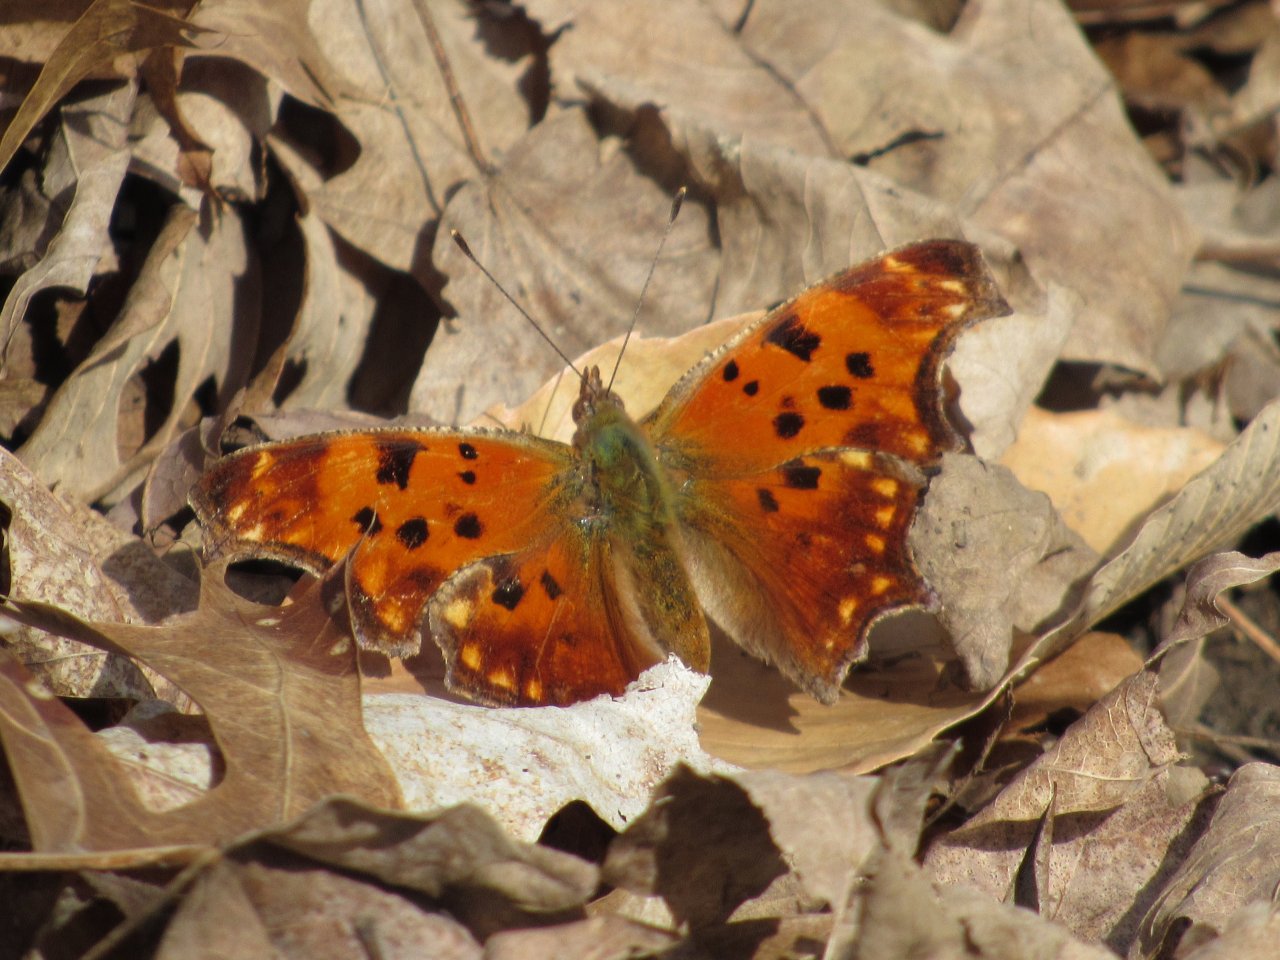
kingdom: Animalia
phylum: Arthropoda
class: Insecta
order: Lepidoptera
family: Nymphalidae
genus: Polygonia
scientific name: Polygonia comma
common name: Eastern Comma
